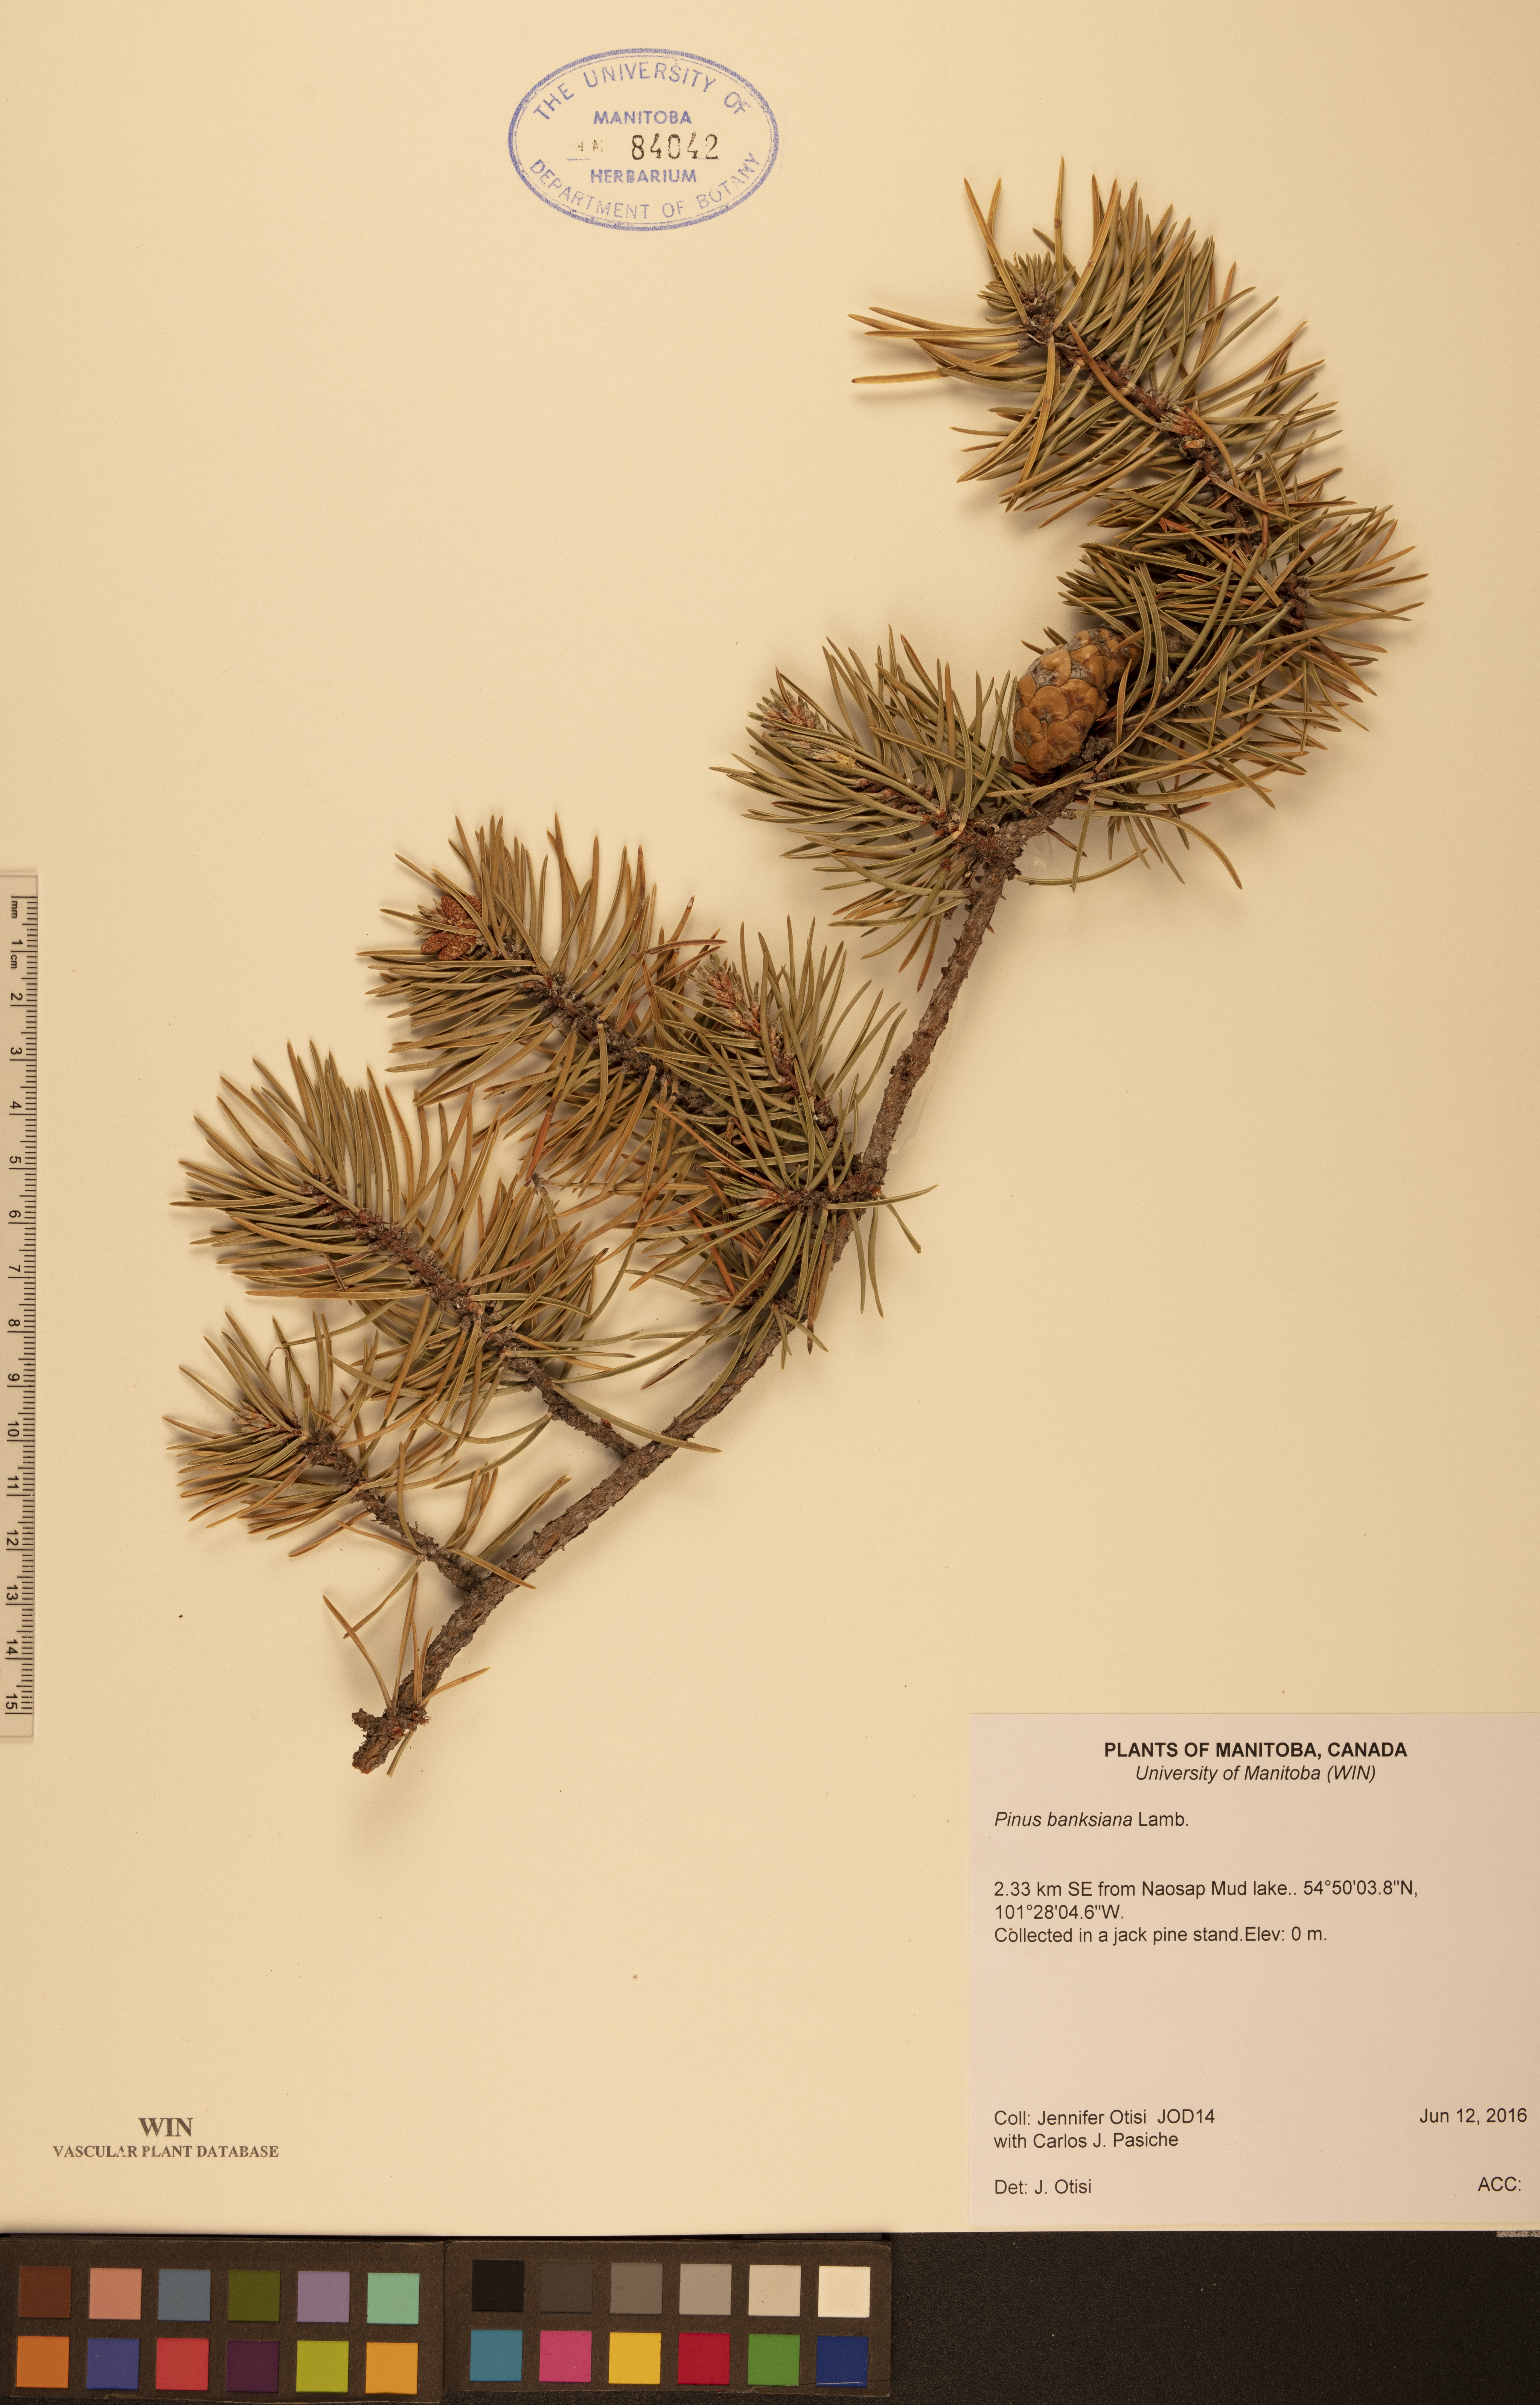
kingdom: Plantae
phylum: Tracheophyta
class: Pinopsida
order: Pinales
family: Pinaceae
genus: Pinus
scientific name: Pinus banksiana
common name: Jack pine
